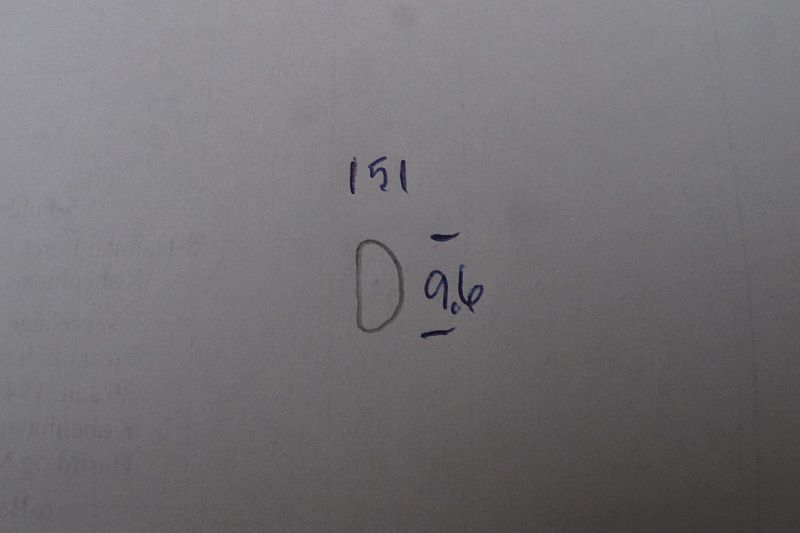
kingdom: Fungi
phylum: Ascomycota
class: Sordariomycetes
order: Xylariales
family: Hypoxylaceae
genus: Jackrogersella
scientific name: Jackrogersella multiformis
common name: foranderlig kulbær
